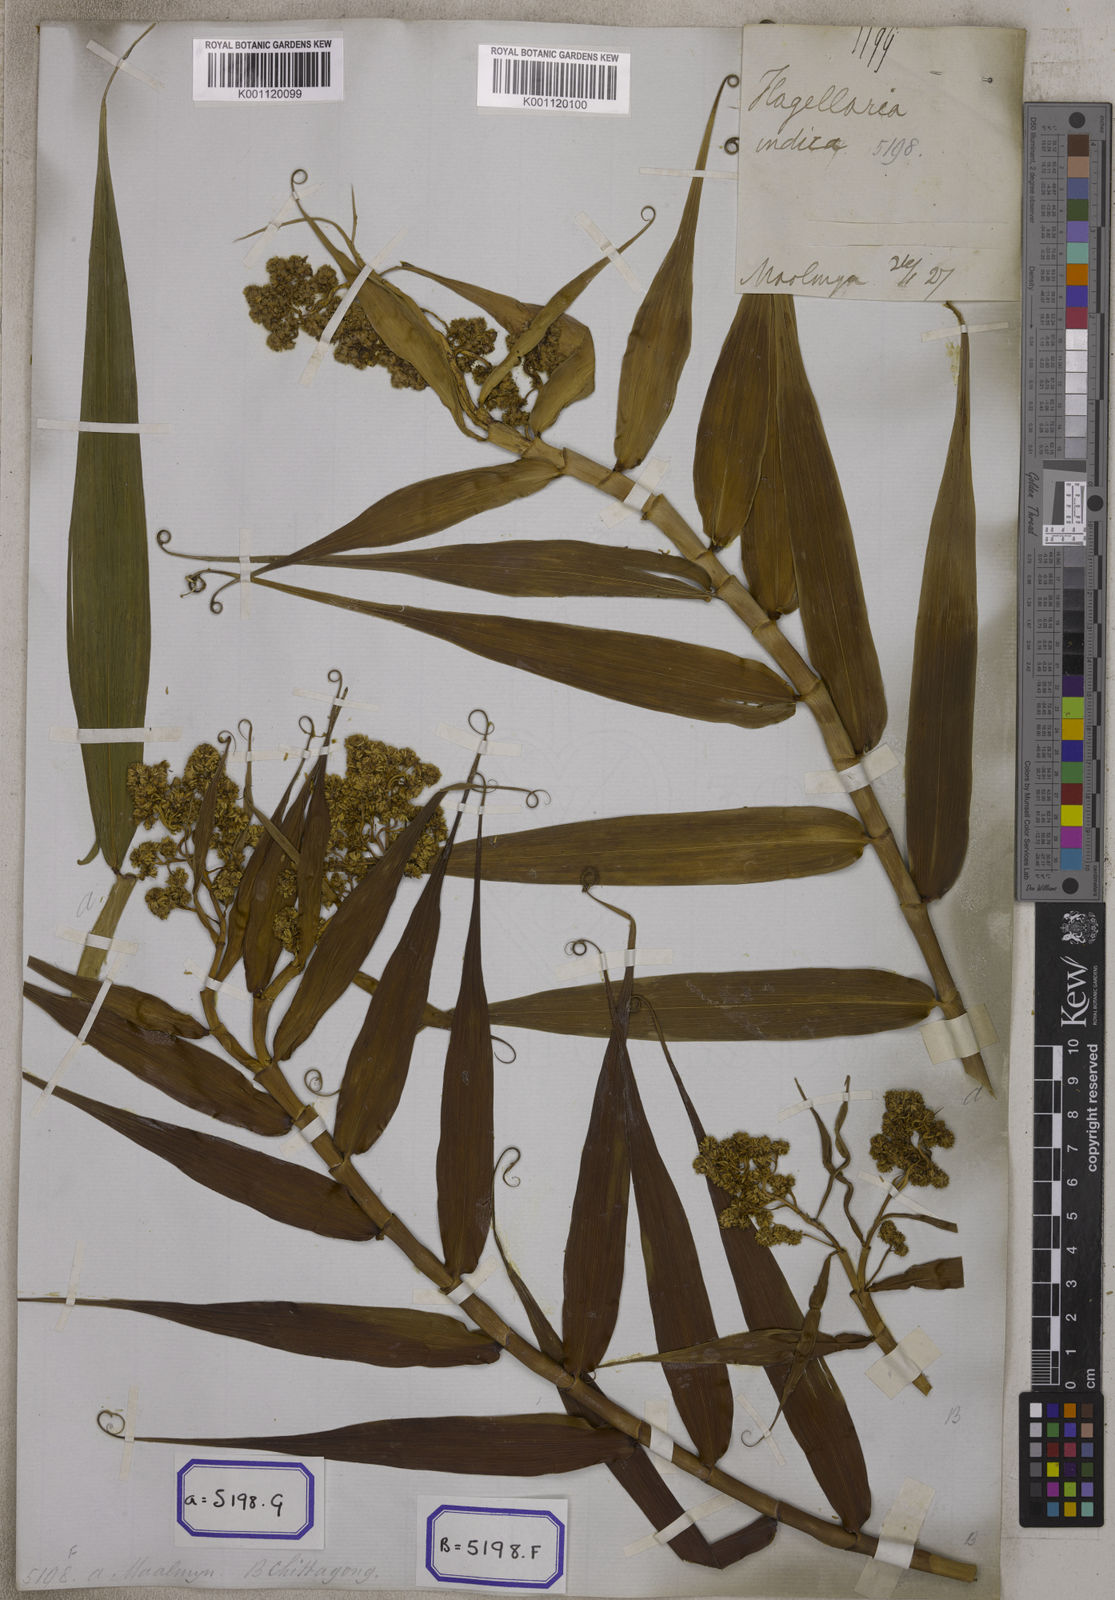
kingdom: Plantae
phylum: Tracheophyta
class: Liliopsida
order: Poales
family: Flagellariaceae
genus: Flagellaria
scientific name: Flagellaria indica
